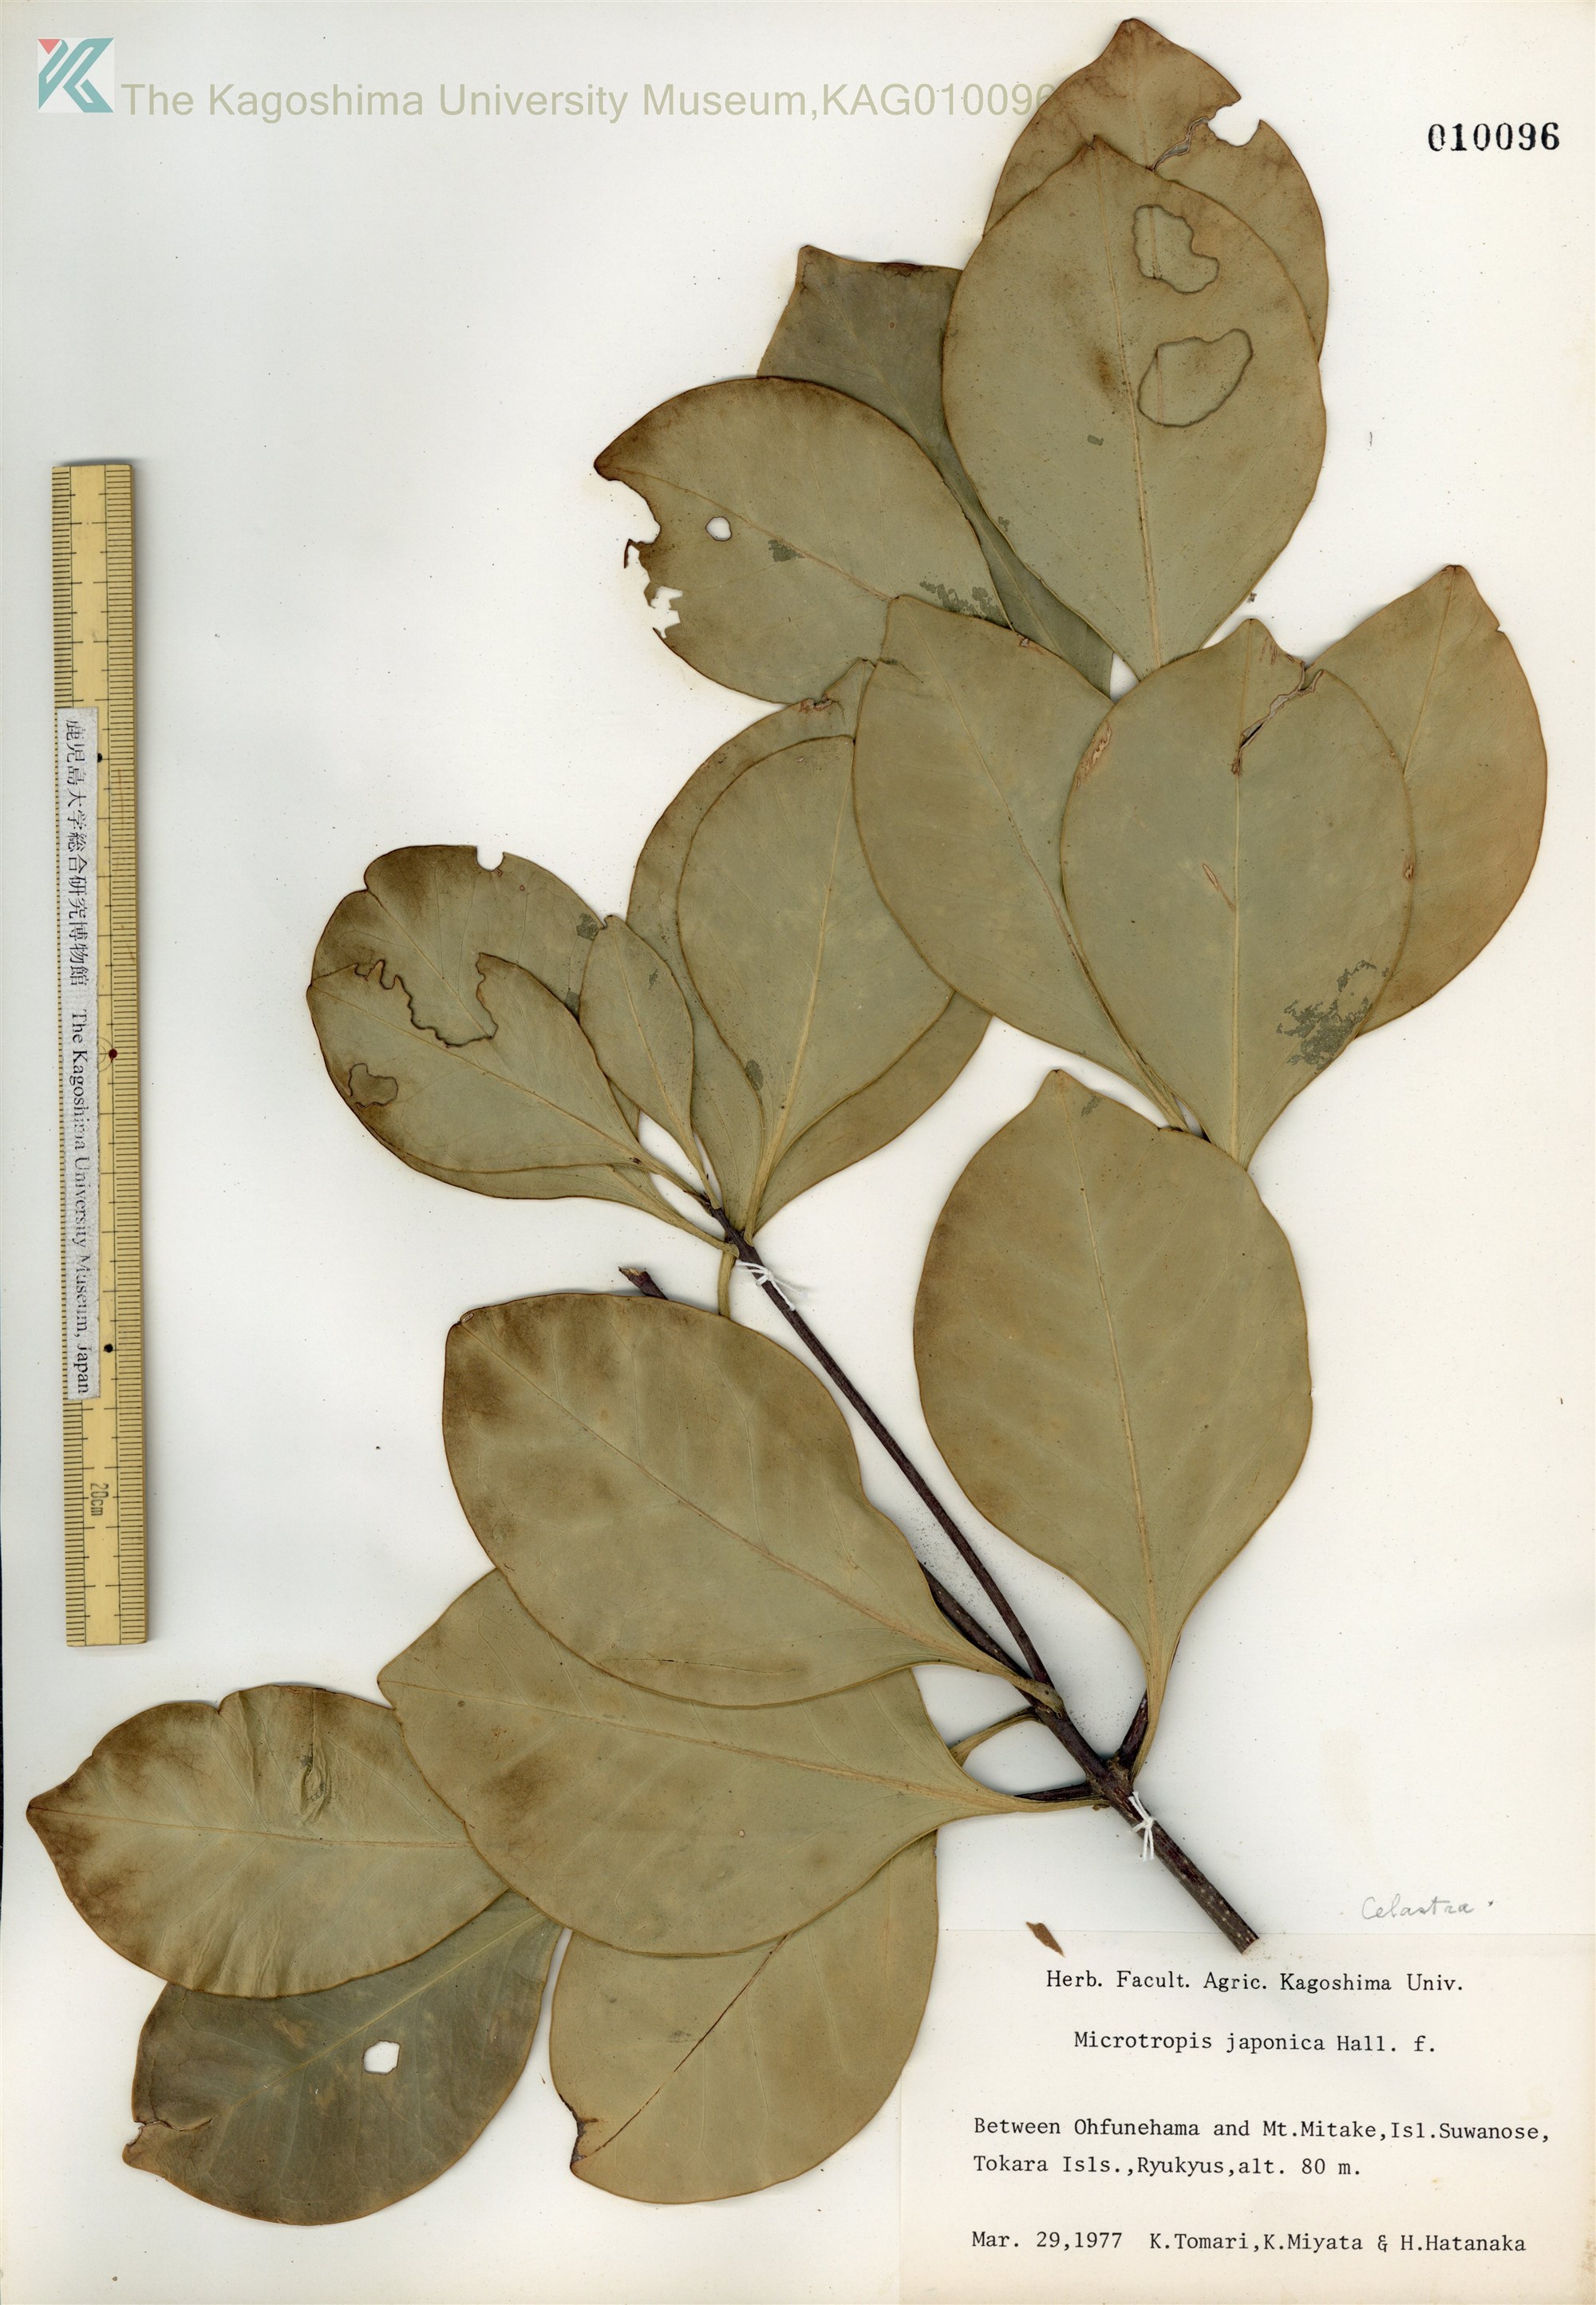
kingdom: Plantae
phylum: Tracheophyta
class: Magnoliopsida
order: Celastrales
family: Celastraceae
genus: Microtropis
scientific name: Microtropis japonica
